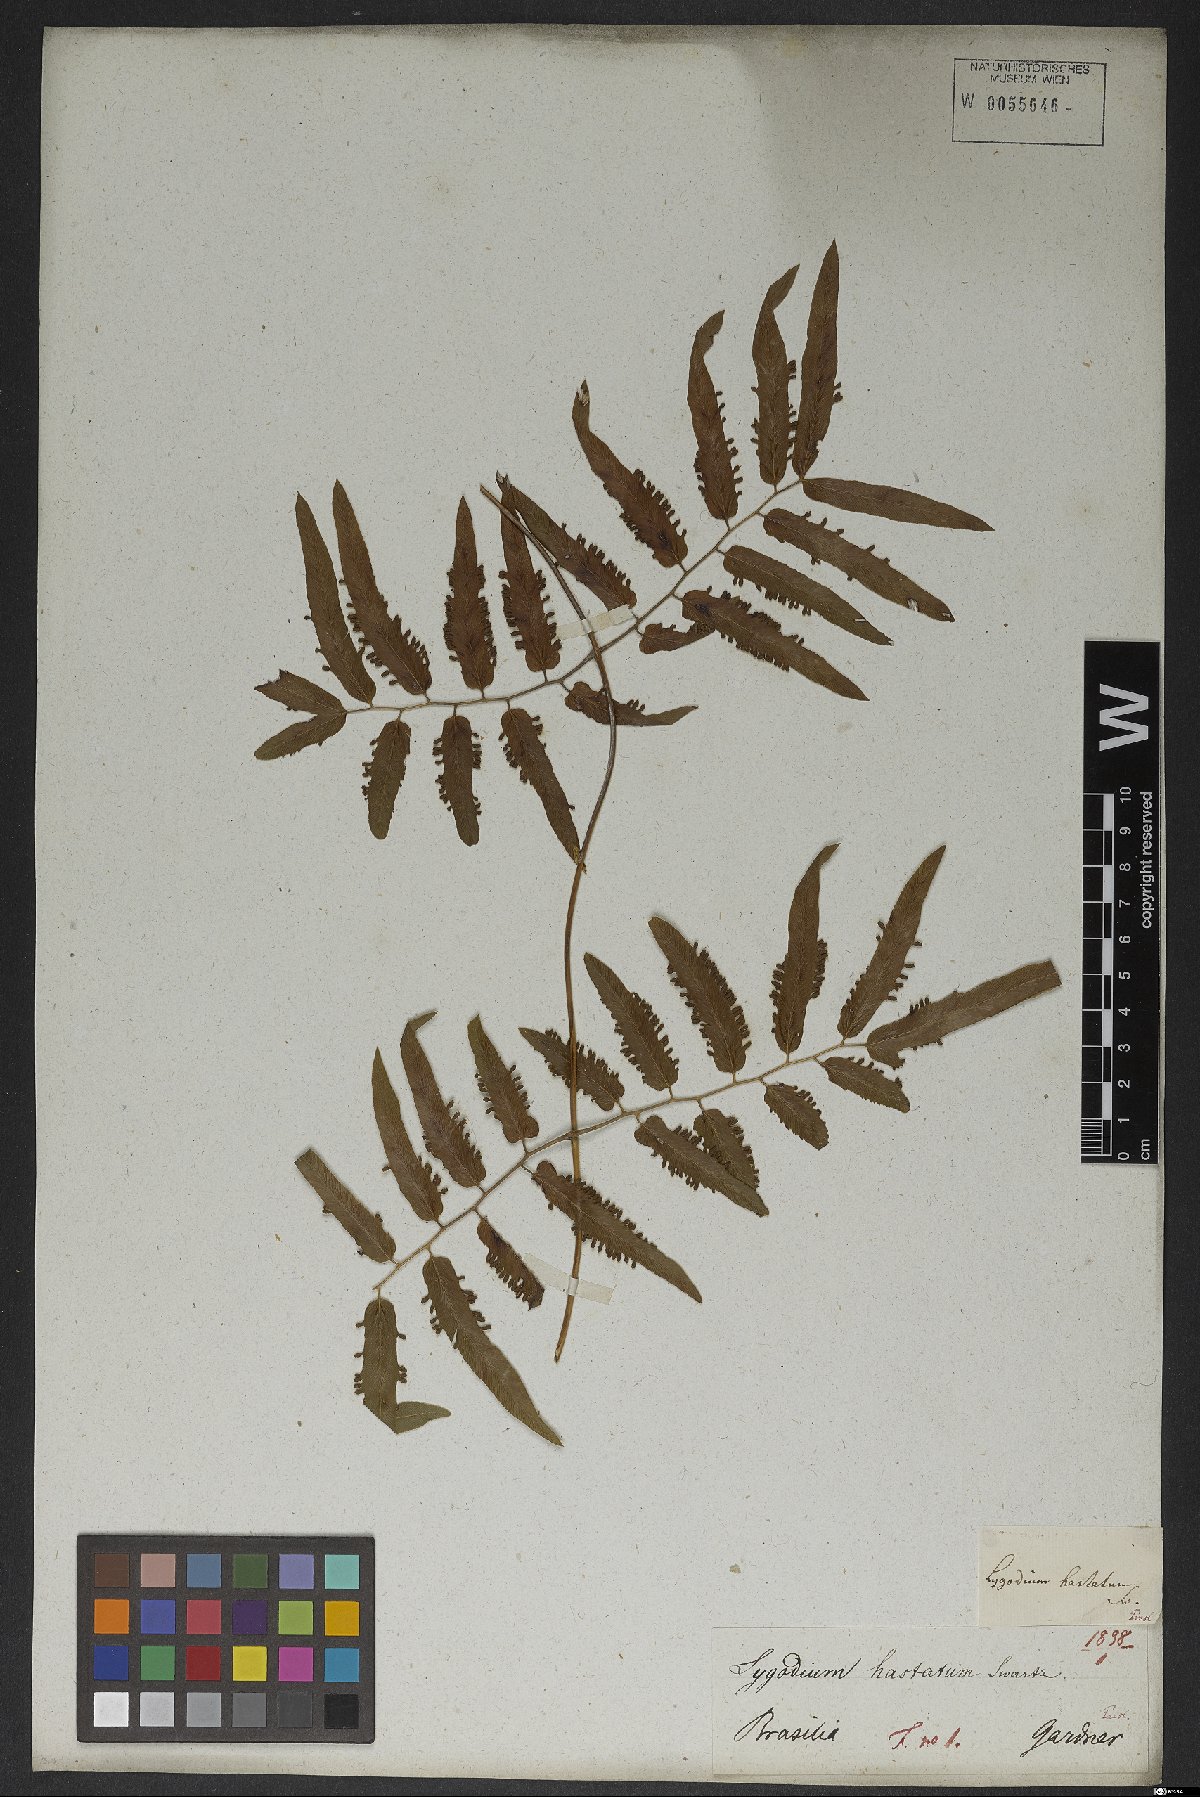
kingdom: Plantae
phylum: Tracheophyta
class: Polypodiopsida
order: Schizaeales
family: Lygodiaceae
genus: Lygodium
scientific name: Lygodium volubile
